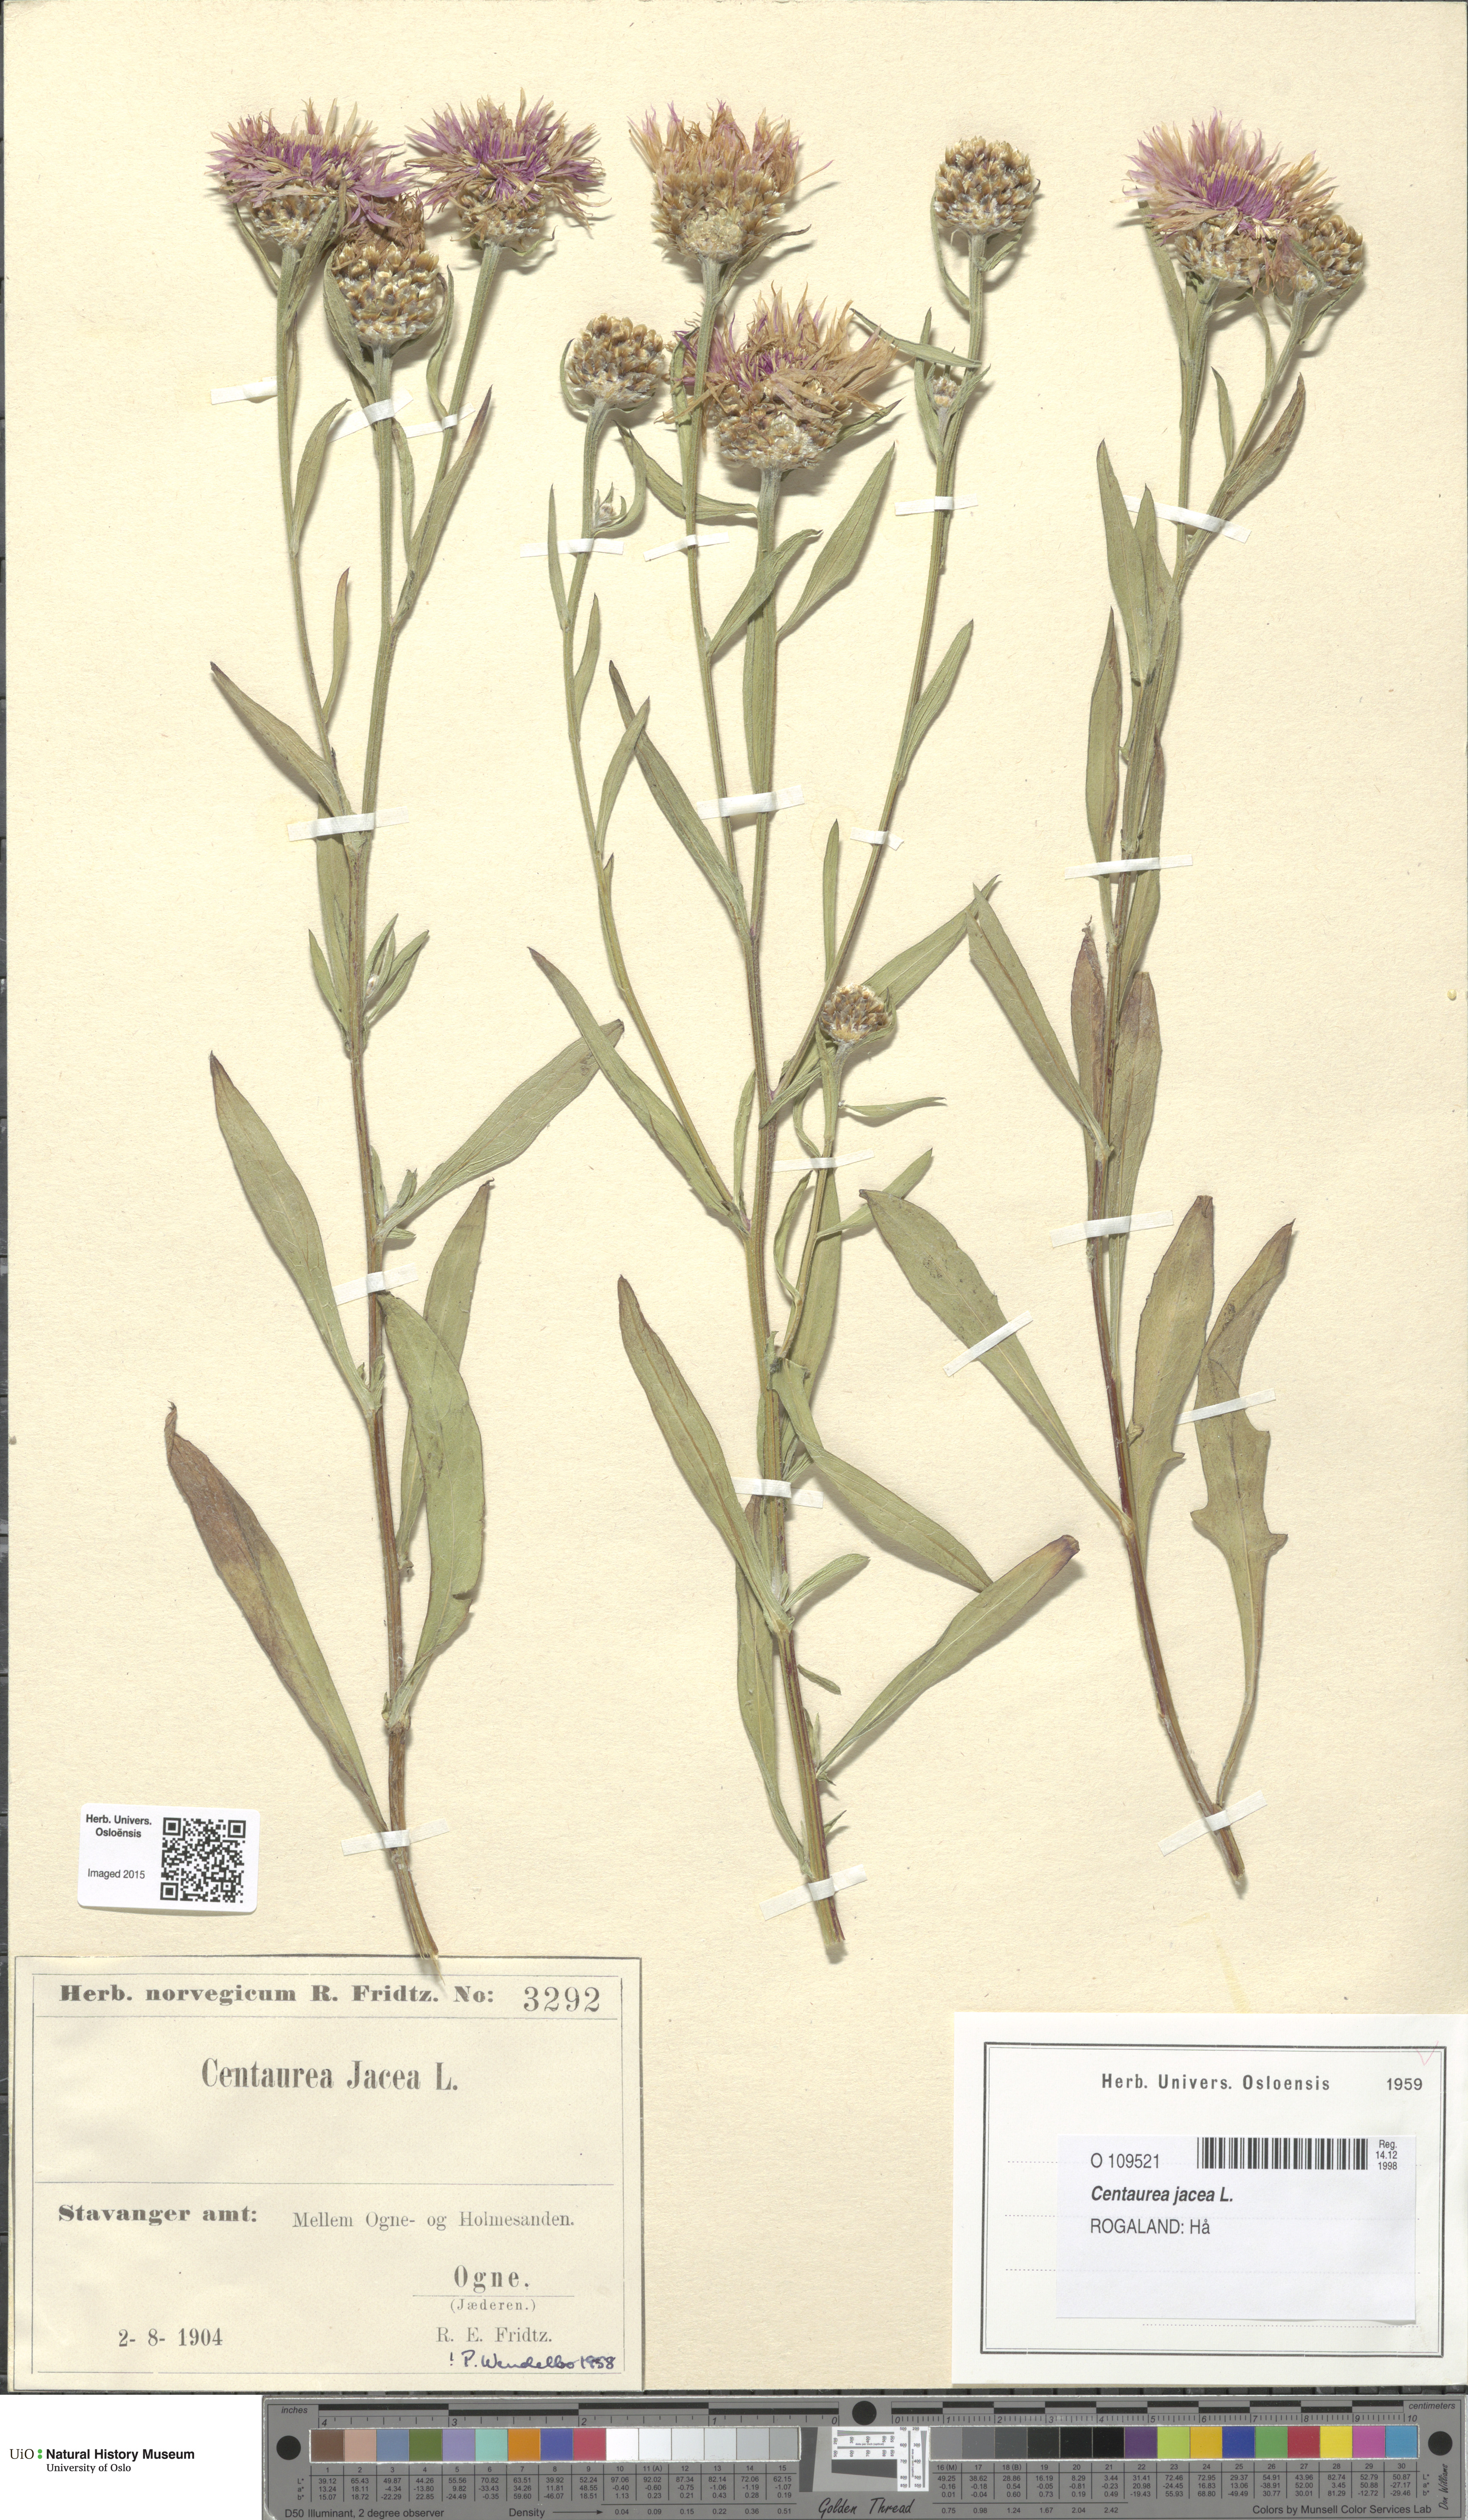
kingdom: Plantae
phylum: Tracheophyta
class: Magnoliopsida
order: Asterales
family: Asteraceae
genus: Centaurea
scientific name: Centaurea jacea
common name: Brown knapweed
